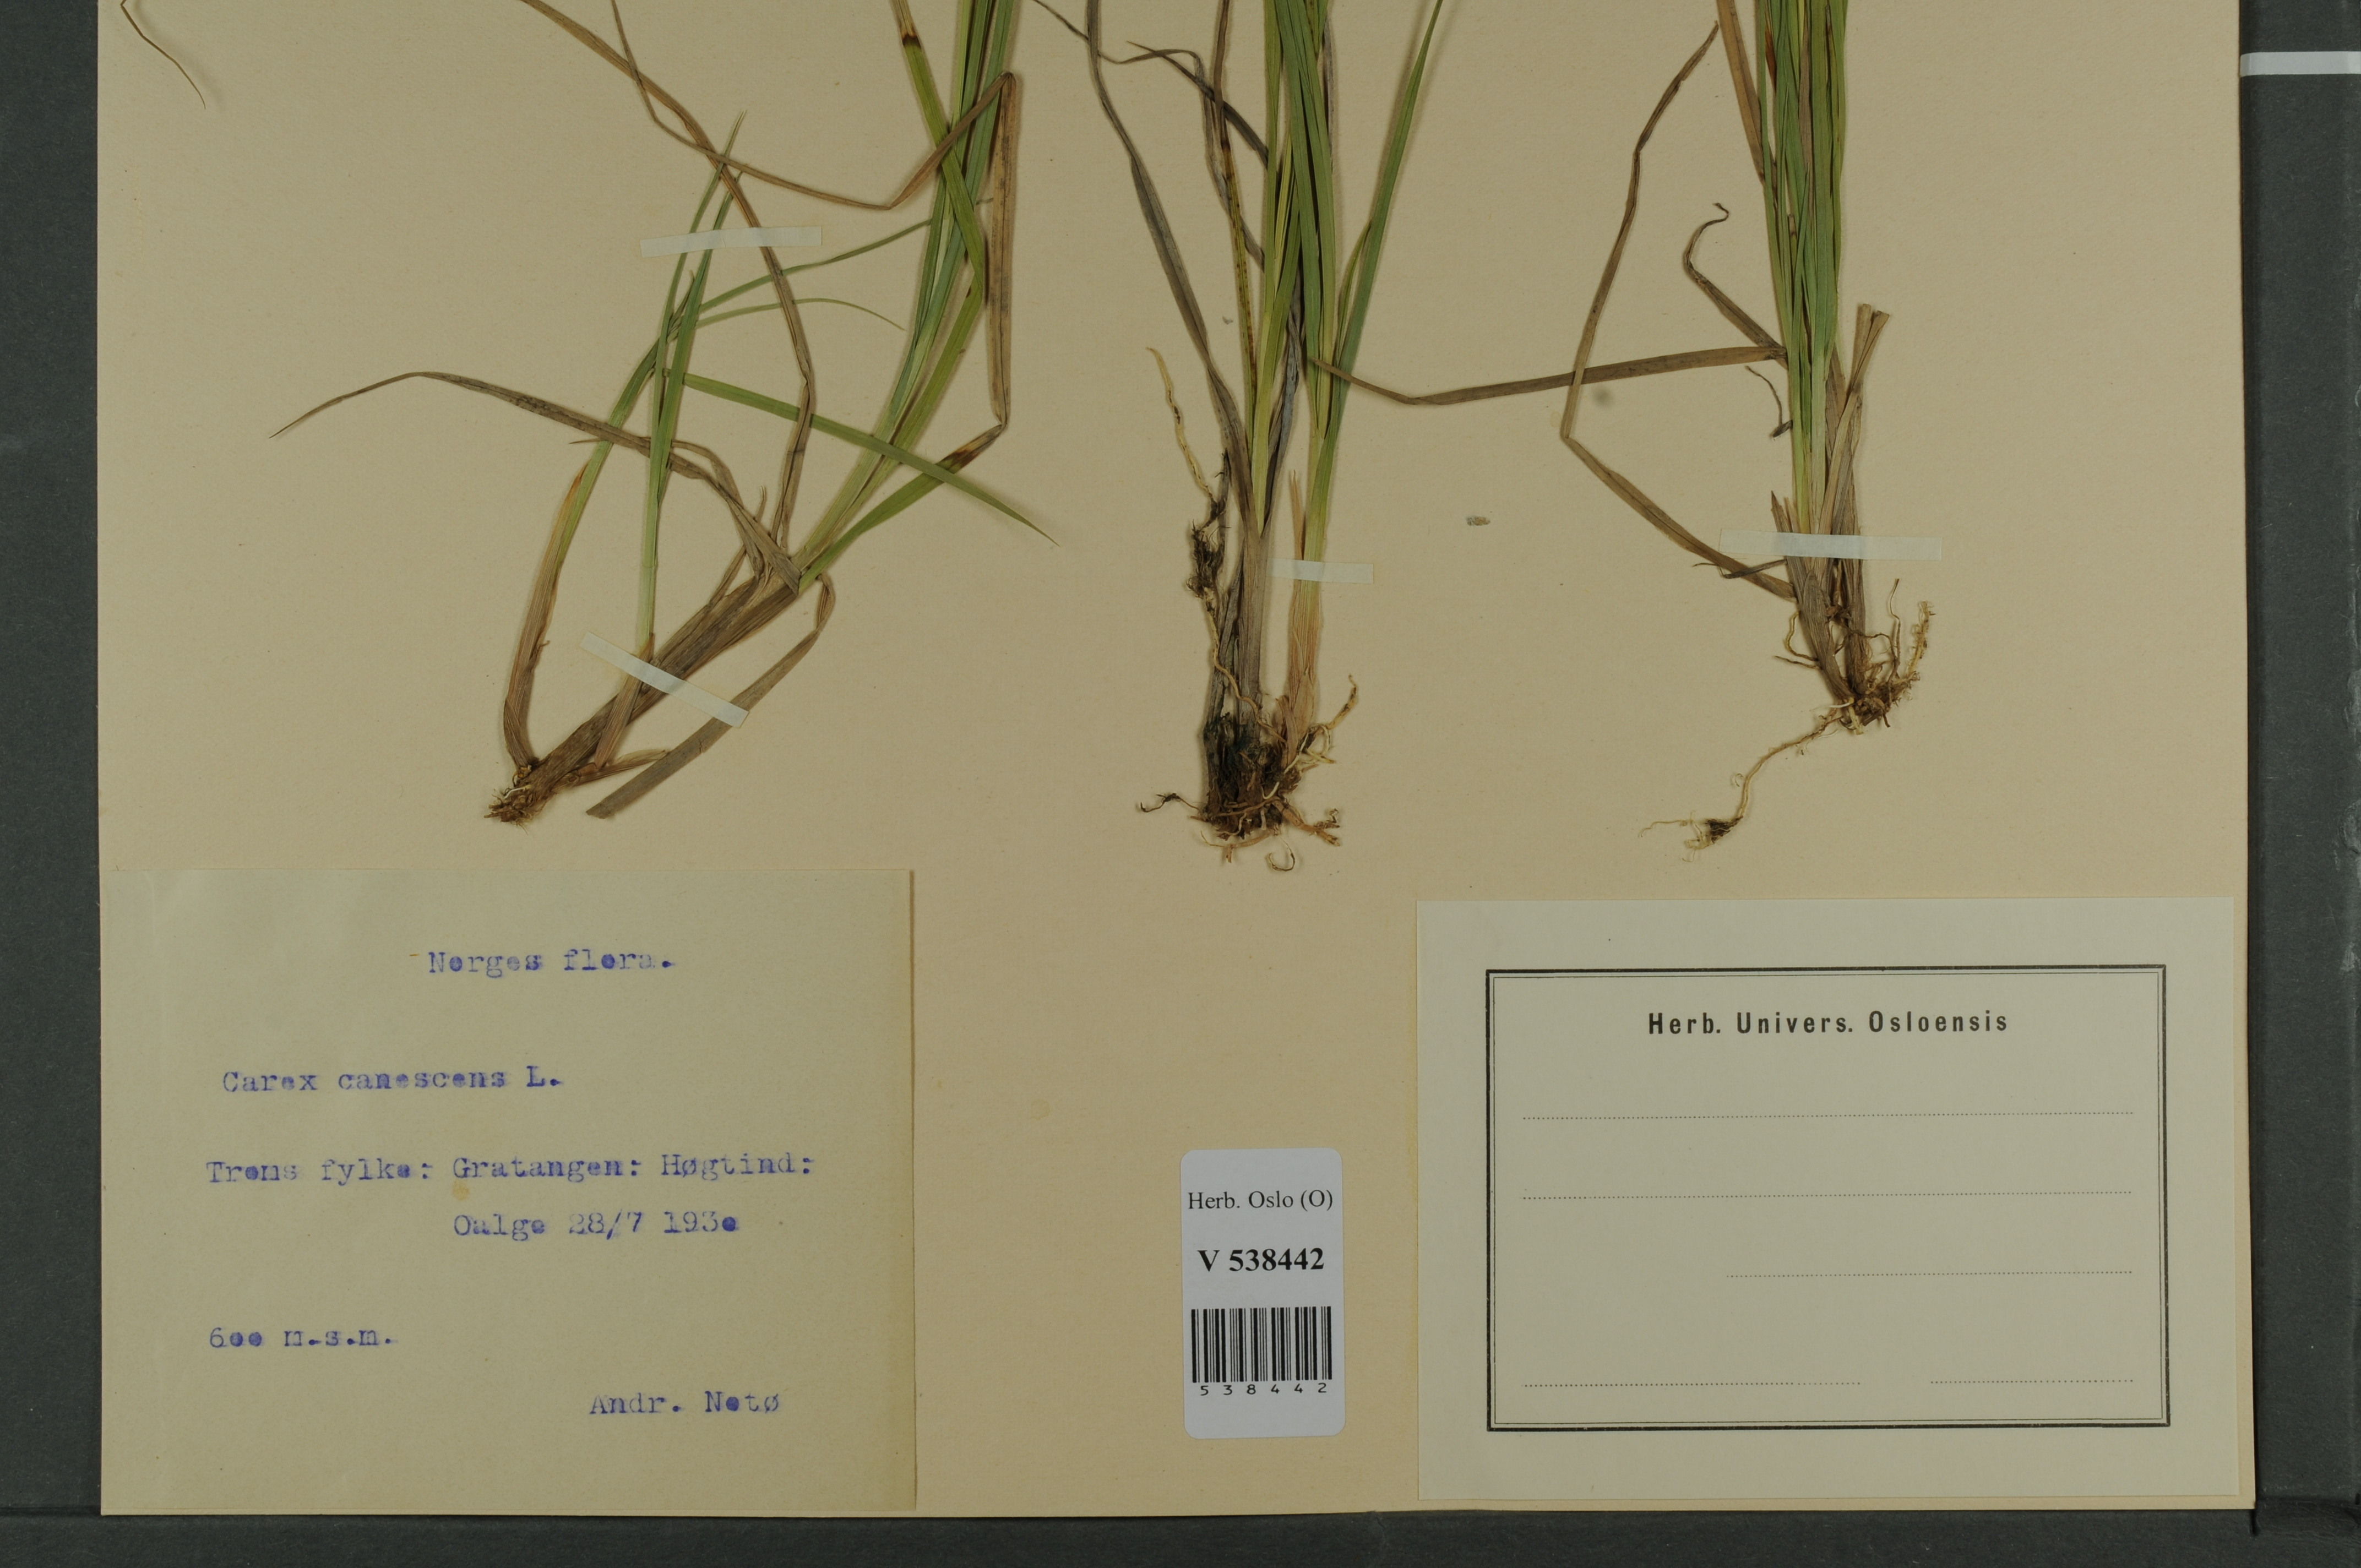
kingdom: Plantae
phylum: Tracheophyta
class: Liliopsida
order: Poales
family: Cyperaceae
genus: Carex
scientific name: Carex canescens
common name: White sedge
